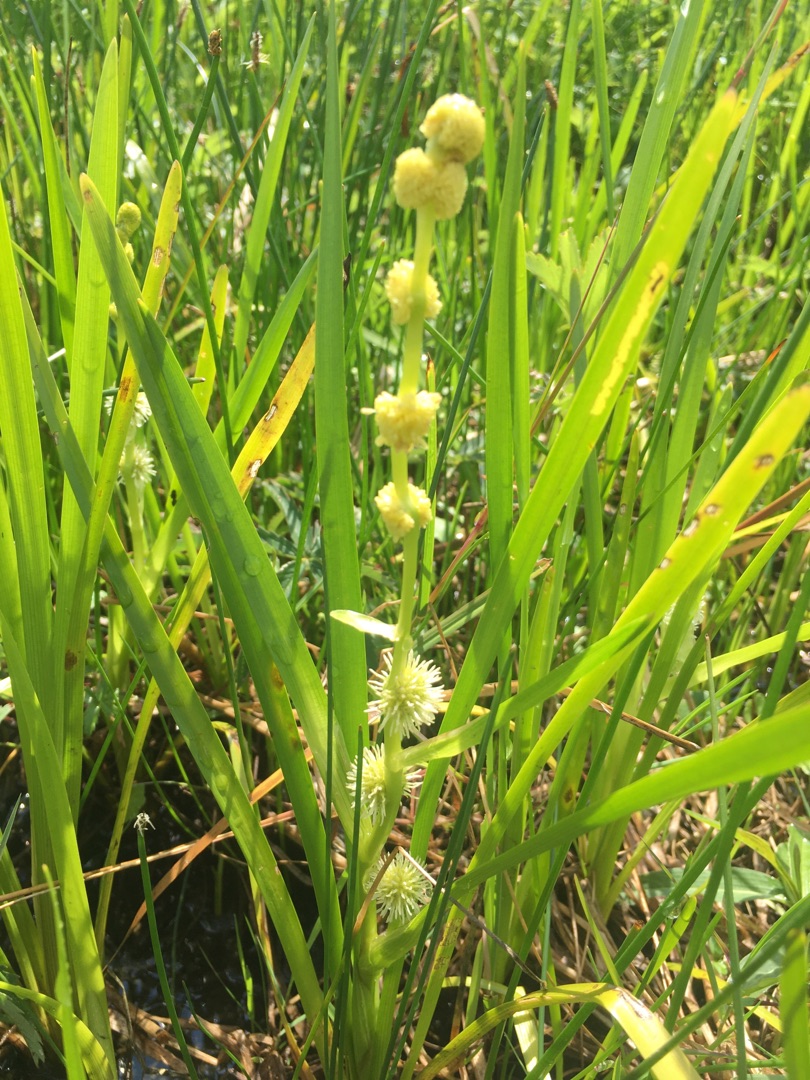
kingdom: Plantae
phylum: Tracheophyta
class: Liliopsida
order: Poales
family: Typhaceae
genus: Sparganium
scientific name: Sparganium emersum
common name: Enkelt pindsvineknop
